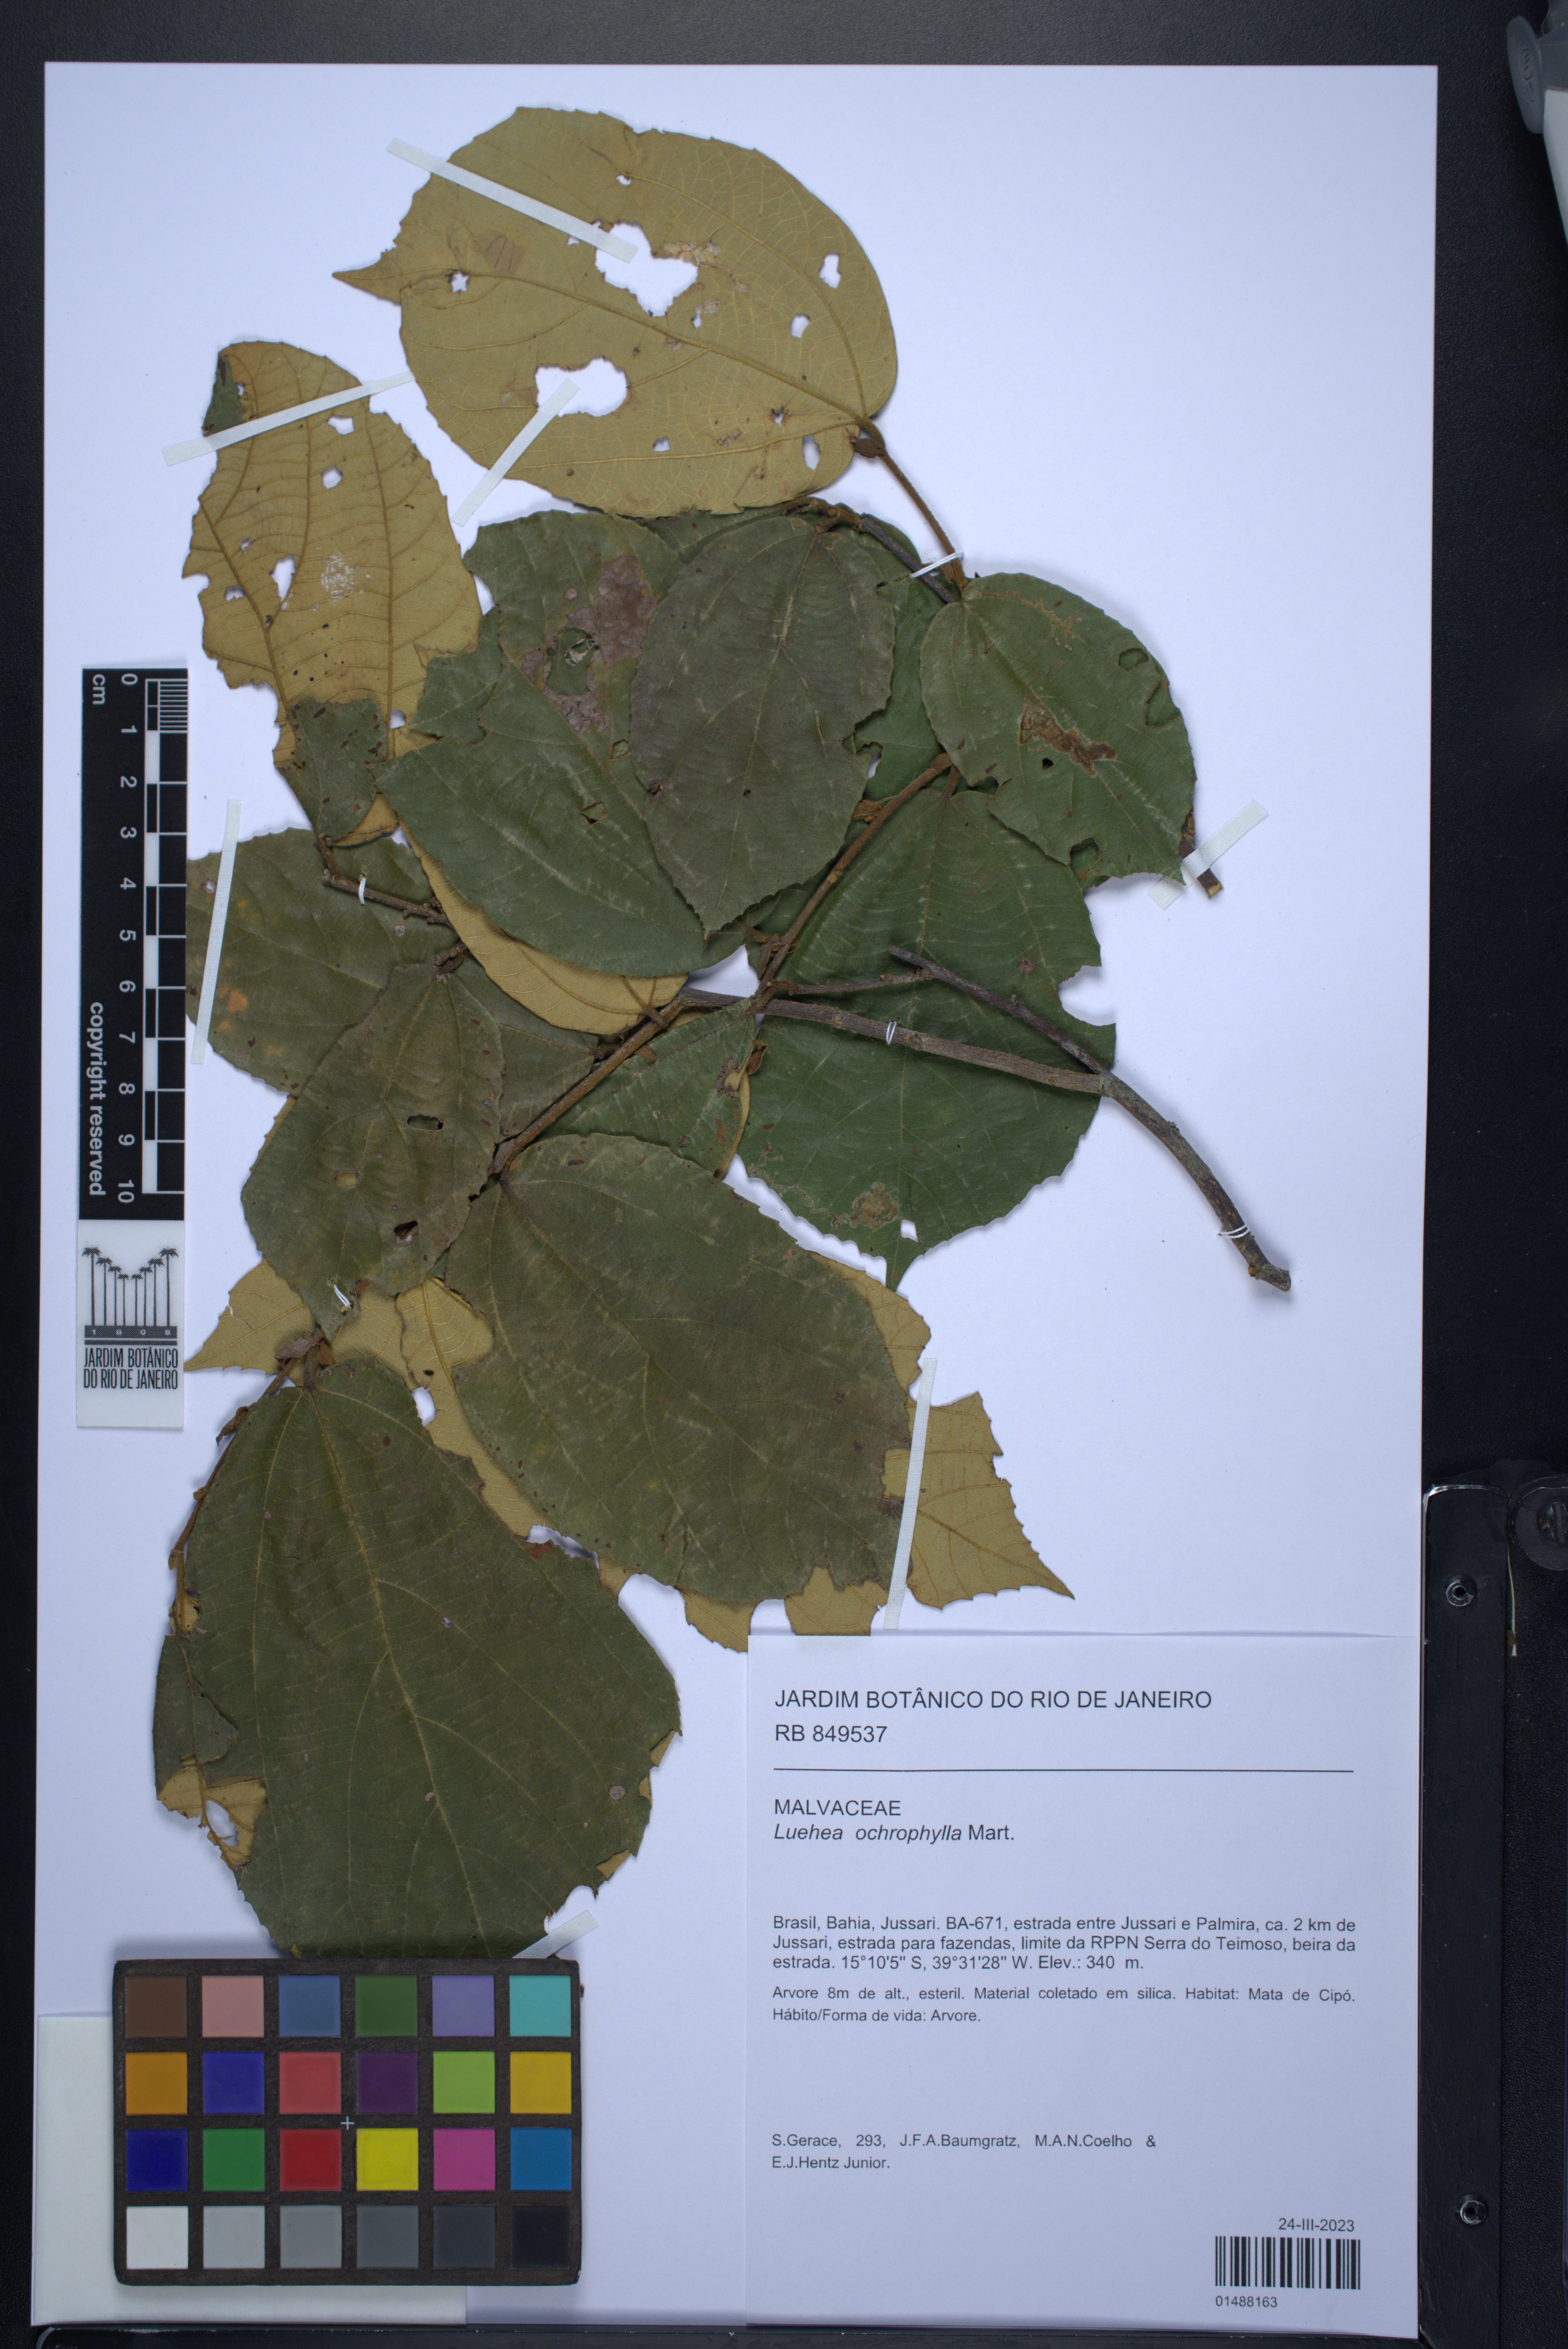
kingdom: Plantae
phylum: Tracheophyta
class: Magnoliopsida
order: Malvales
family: Malvaceae
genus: Luehea
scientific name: Luehea ochrophylla
